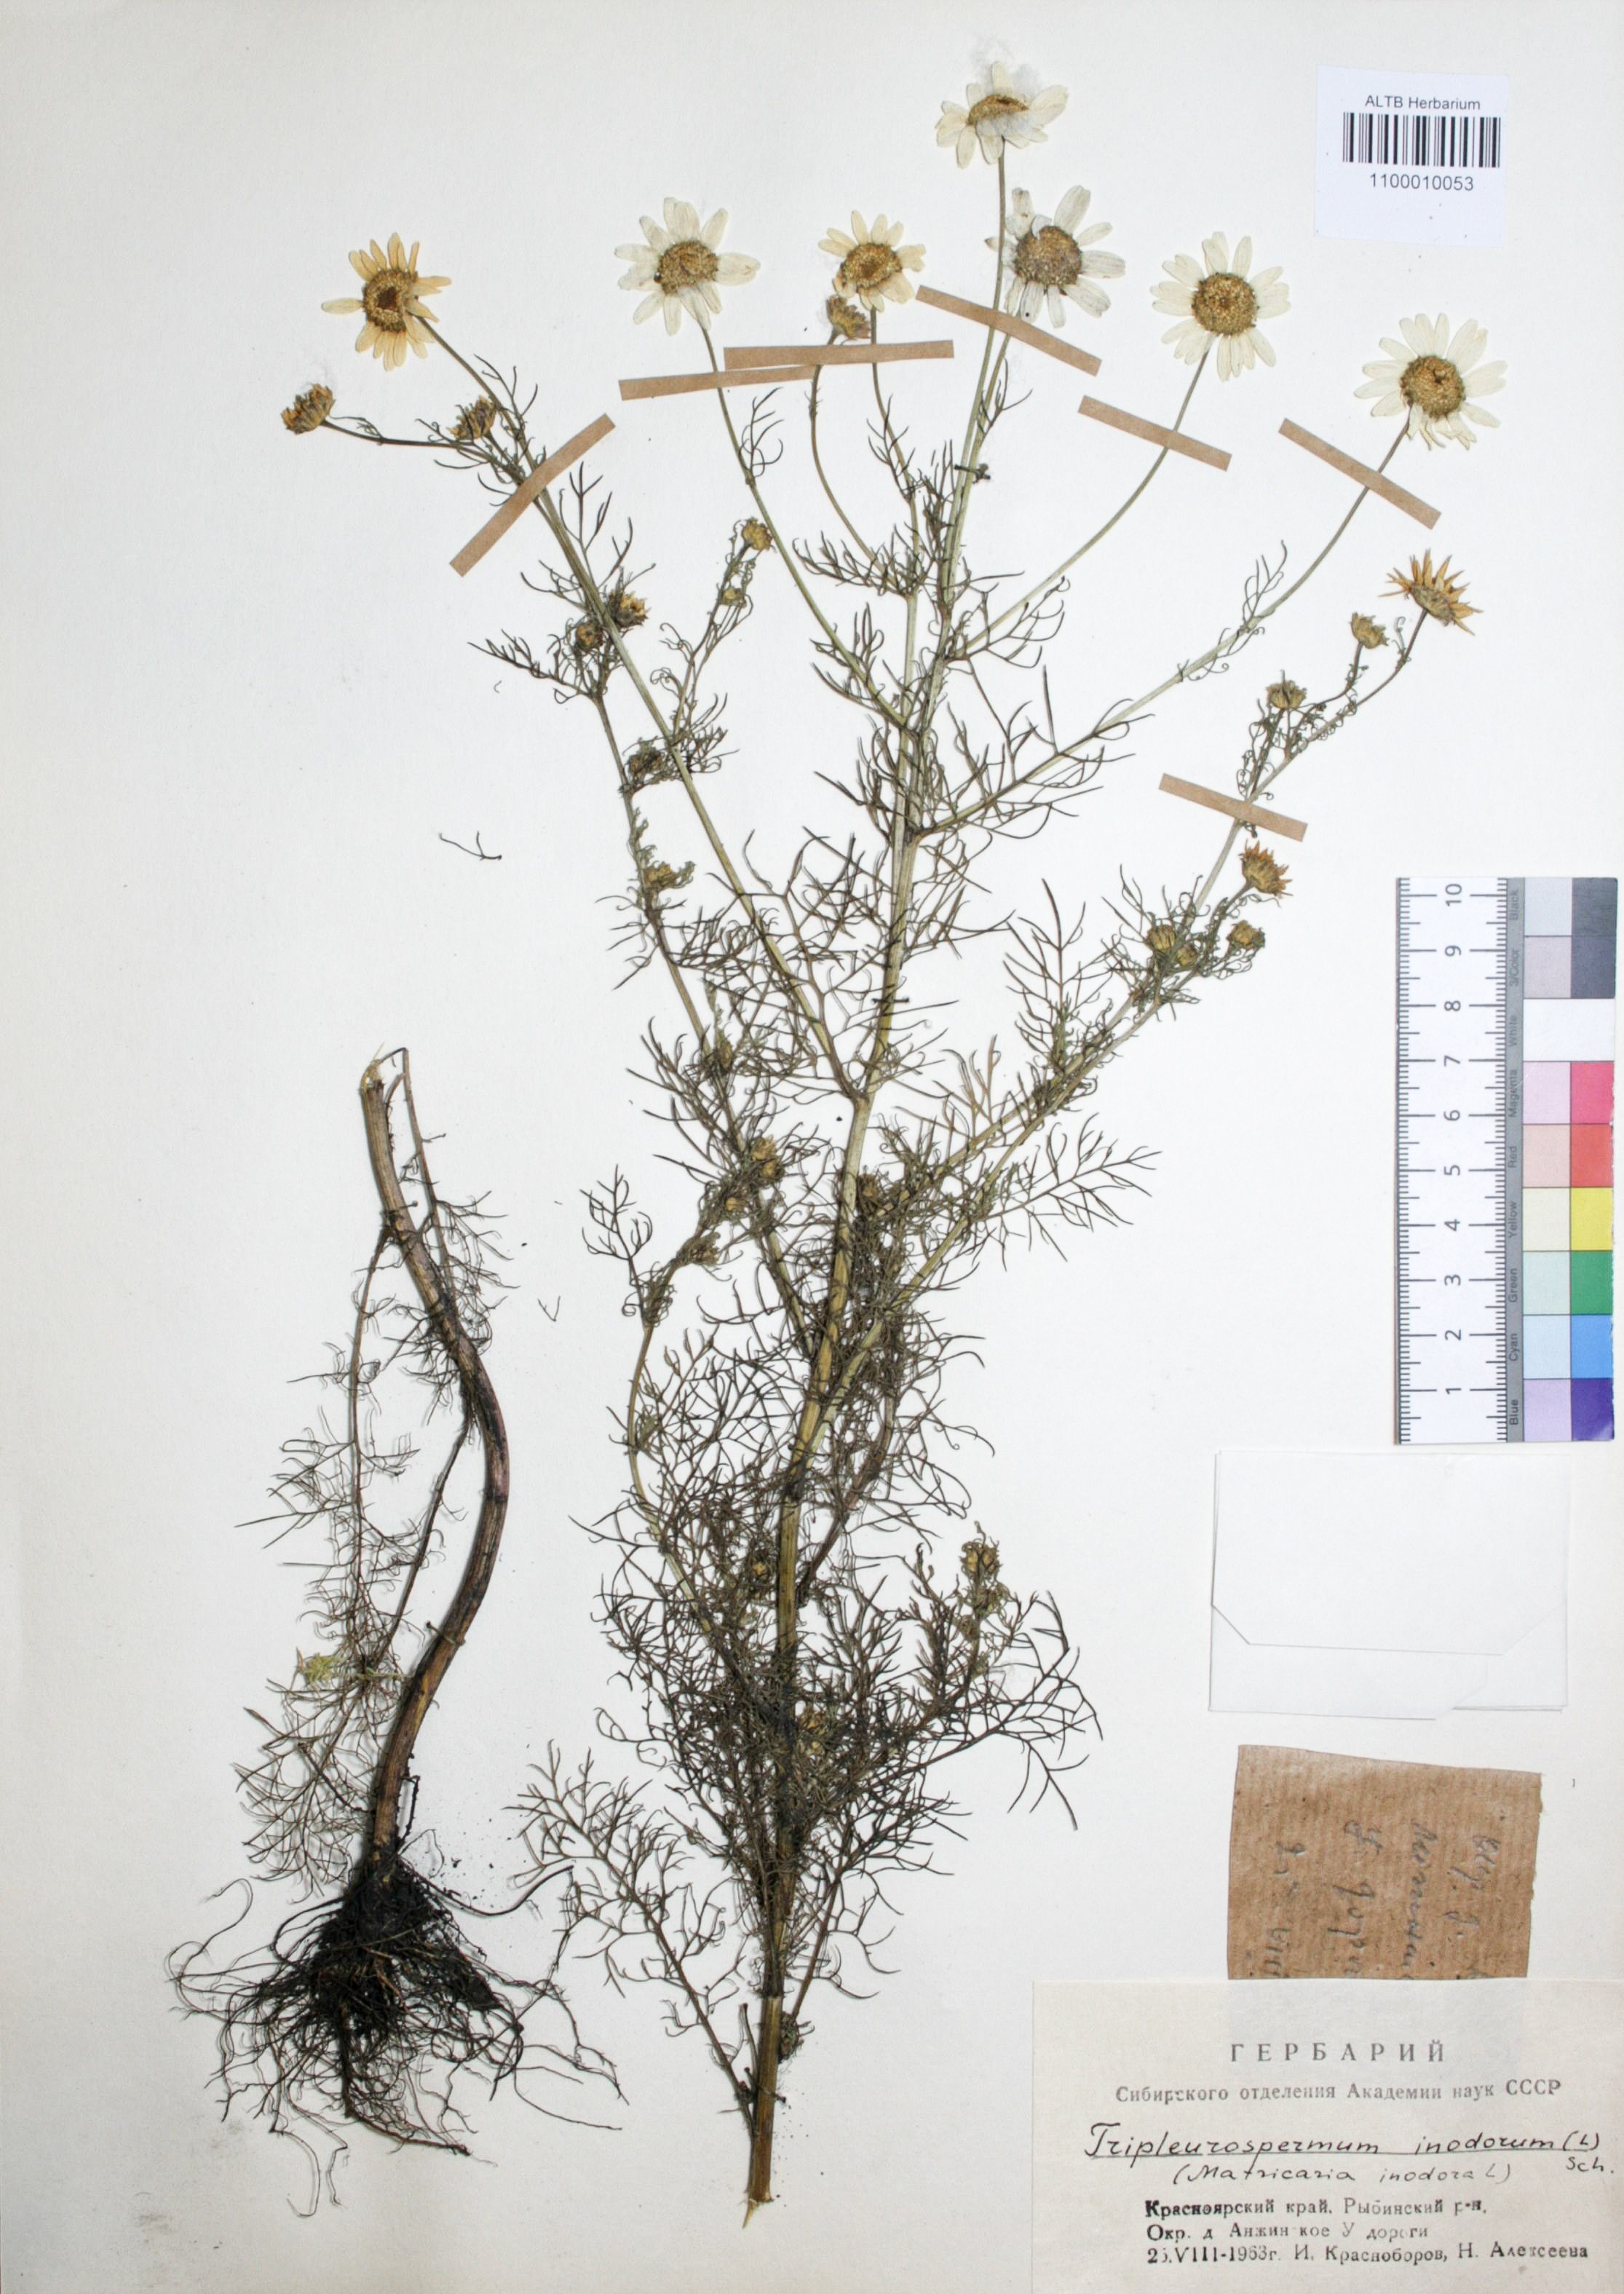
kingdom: Plantae
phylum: Tracheophyta
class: Magnoliopsida
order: Asterales
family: Asteraceae
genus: Tripleurospermum
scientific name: Tripleurospermum inodorum
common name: Scentless mayweed
